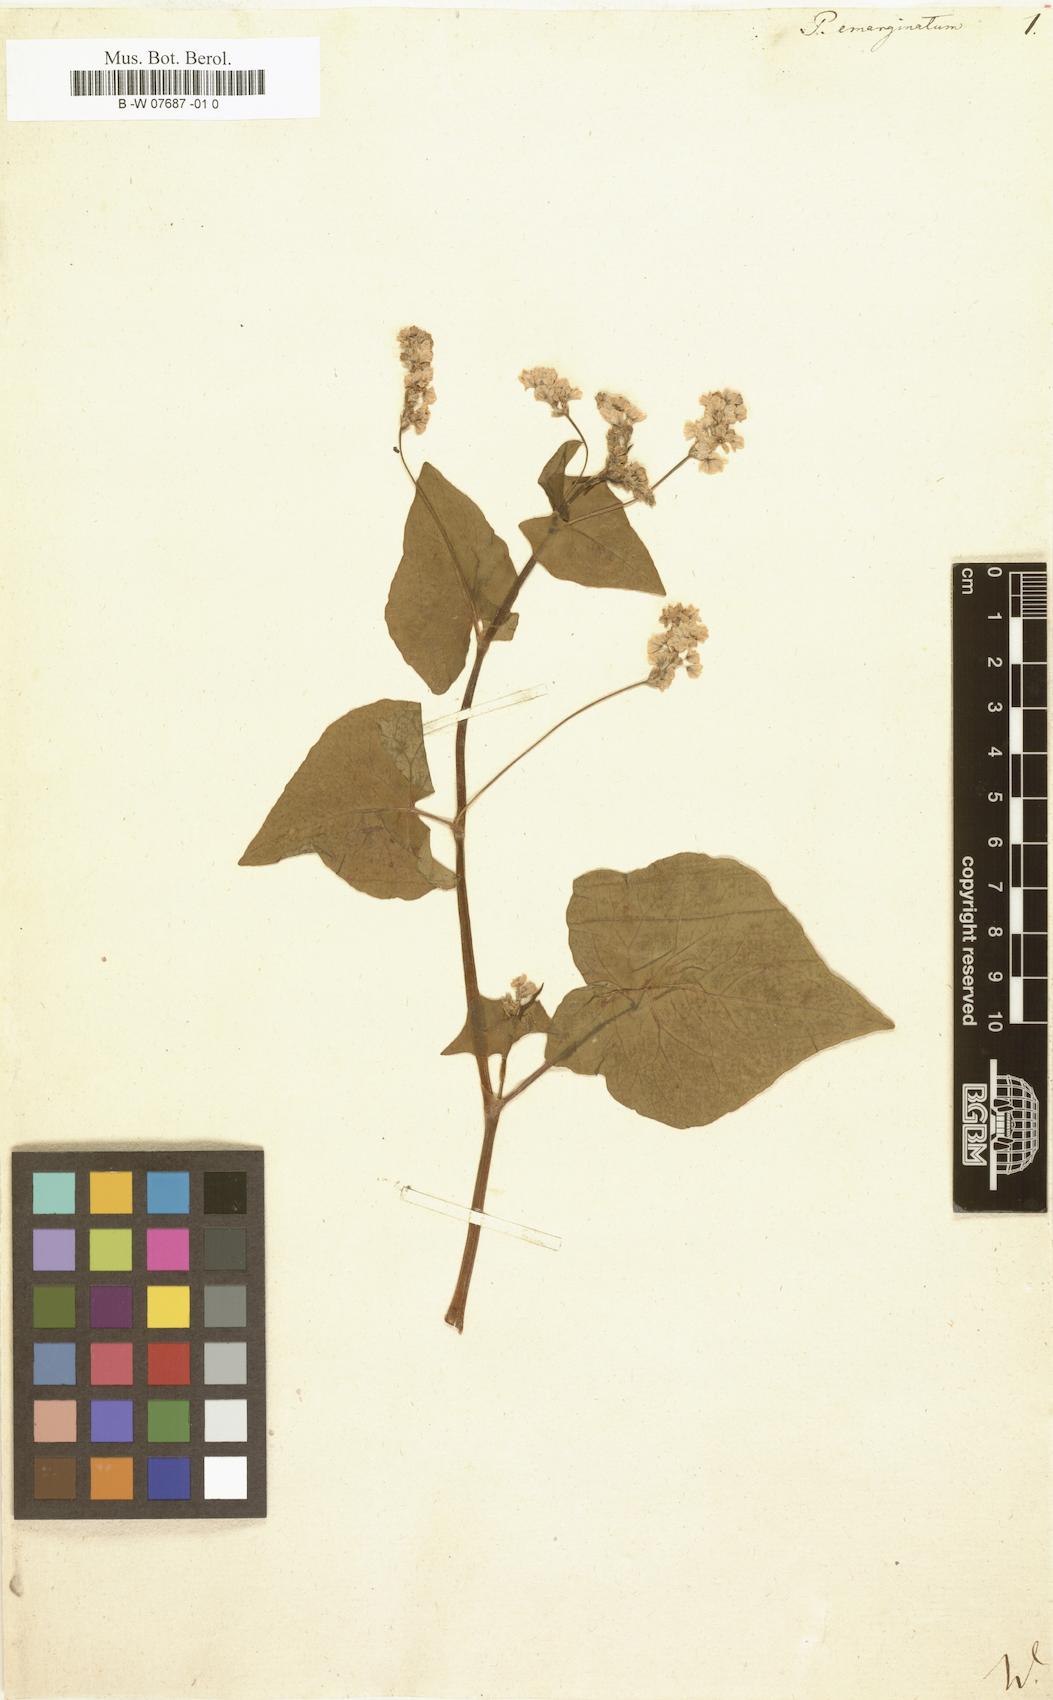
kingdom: Plantae
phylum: Tracheophyta
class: Magnoliopsida
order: Caryophyllales
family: Polygonaceae
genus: Fagopyrum
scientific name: Fagopyrum
